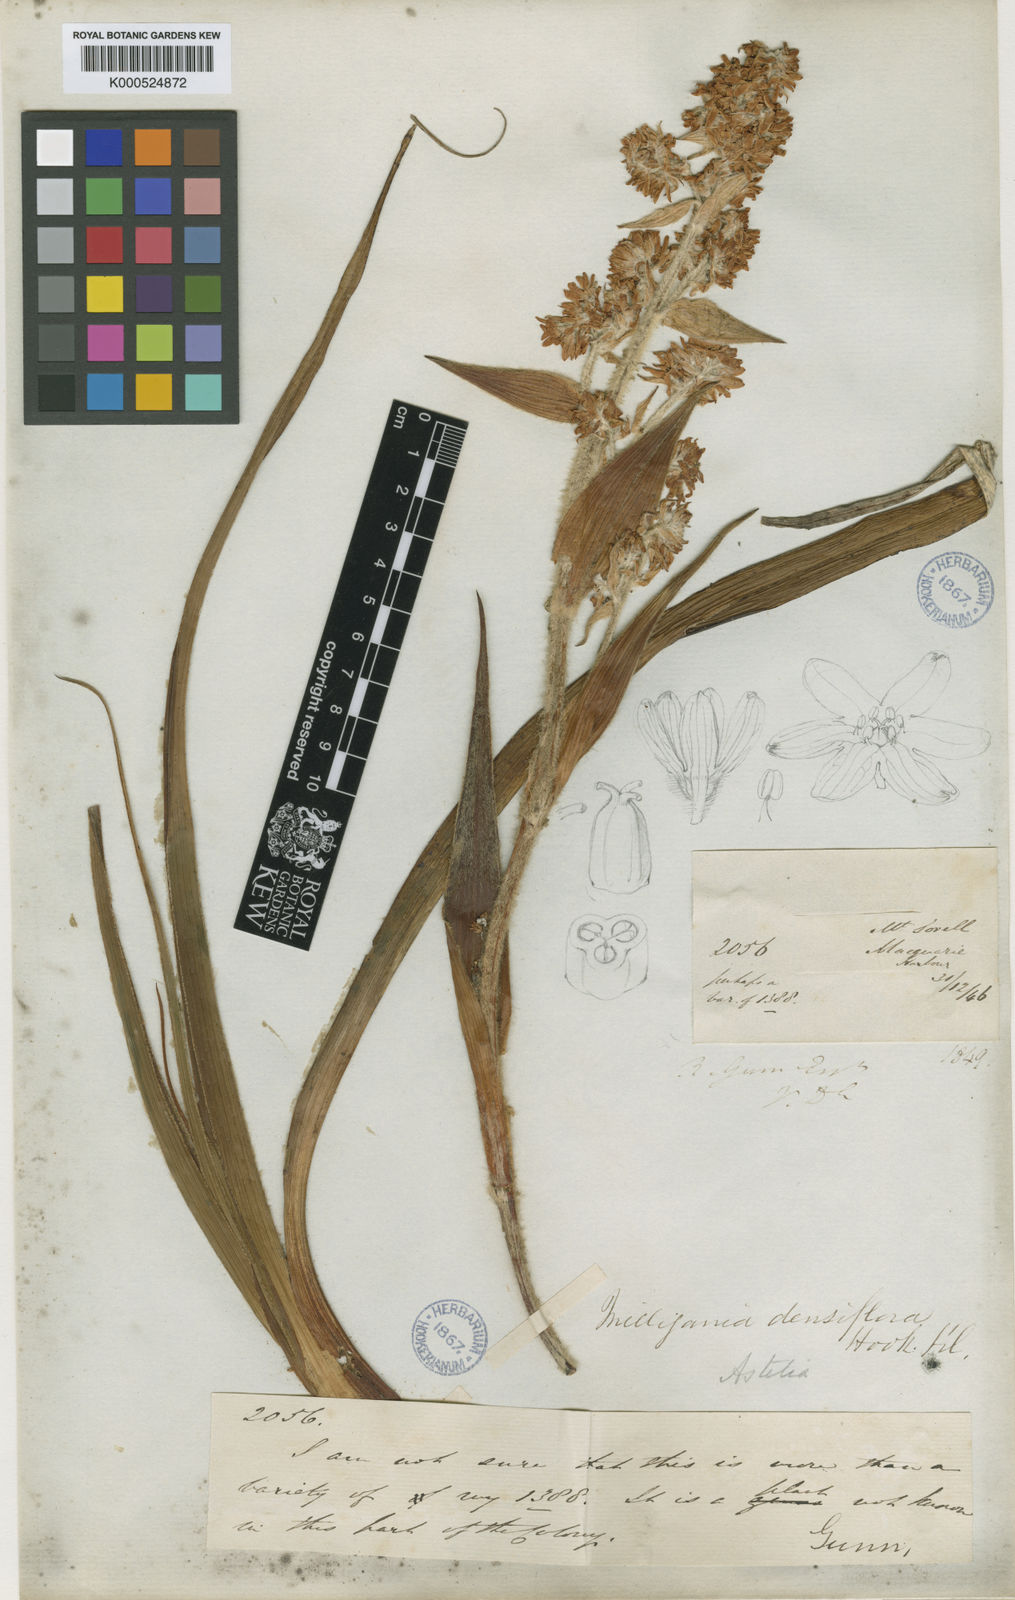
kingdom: Plantae
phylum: Tracheophyta
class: Liliopsida
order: Asparagales
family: Asteliaceae
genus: Milligania
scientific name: Milligania densiflora
